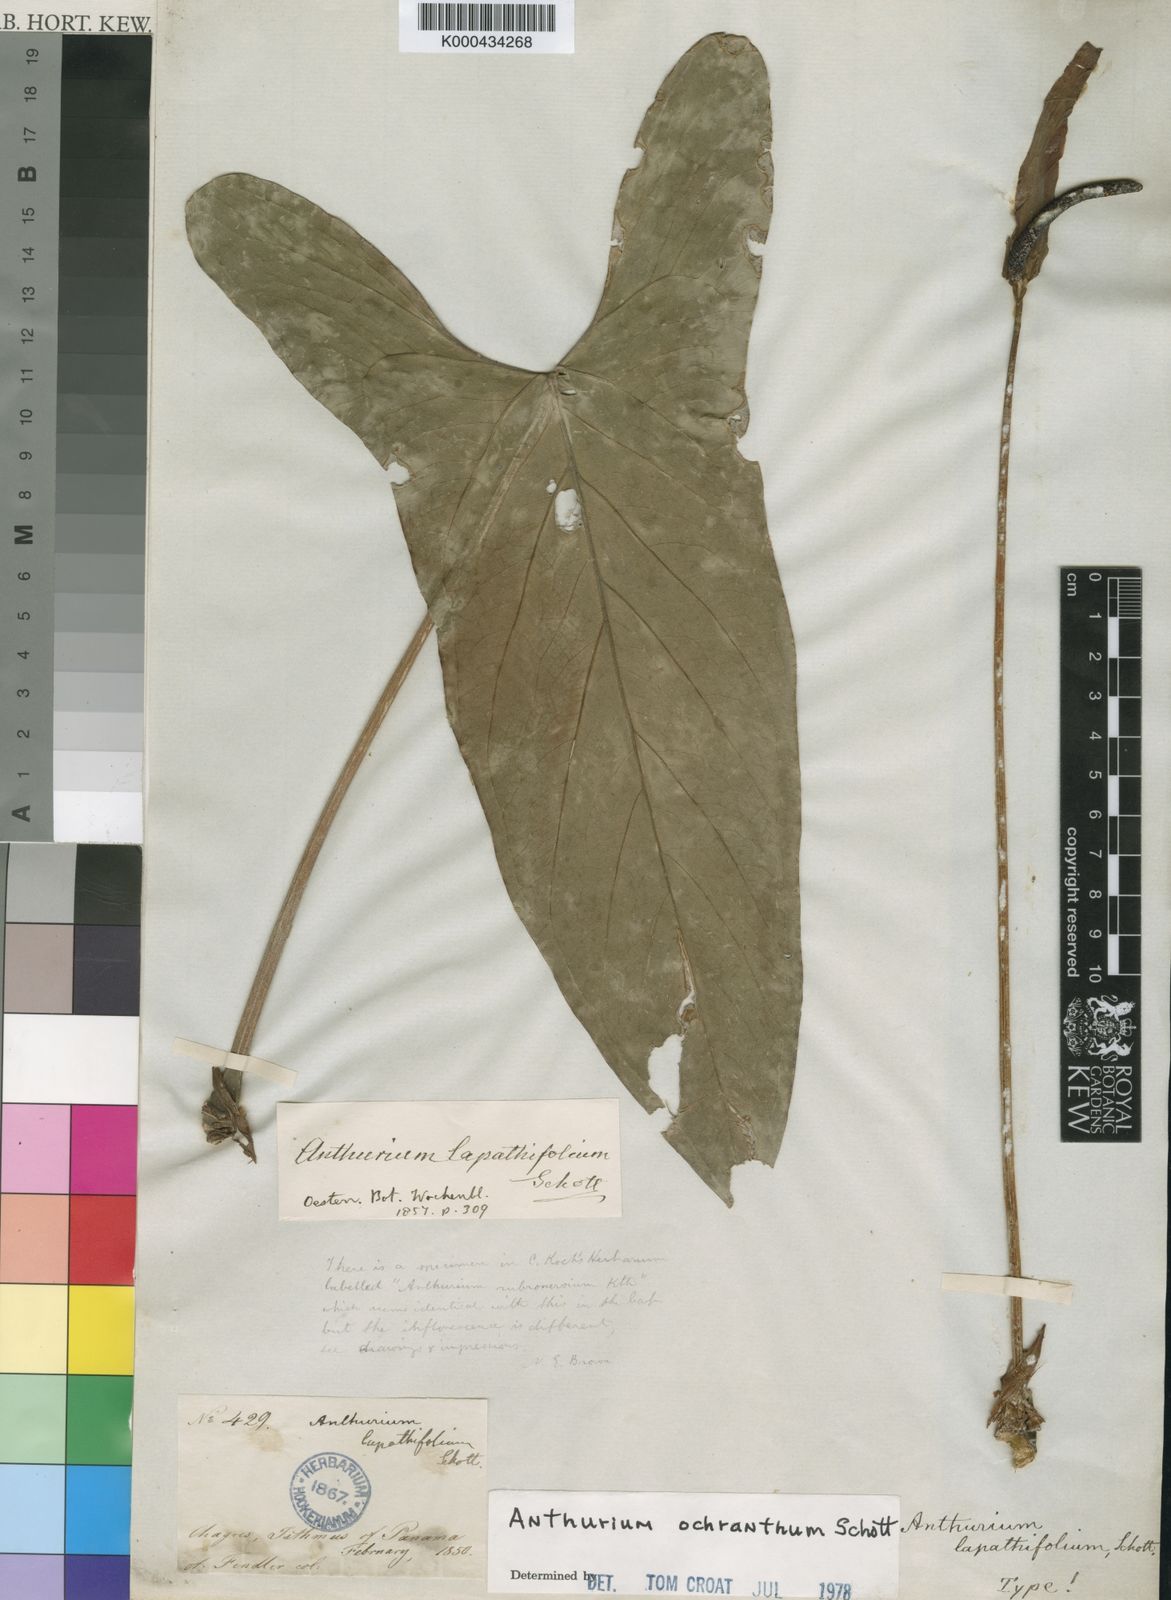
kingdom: Plantae
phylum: Tracheophyta
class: Liliopsida
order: Alismatales
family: Araceae
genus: Anthurium
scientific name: Anthurium ochranthum
